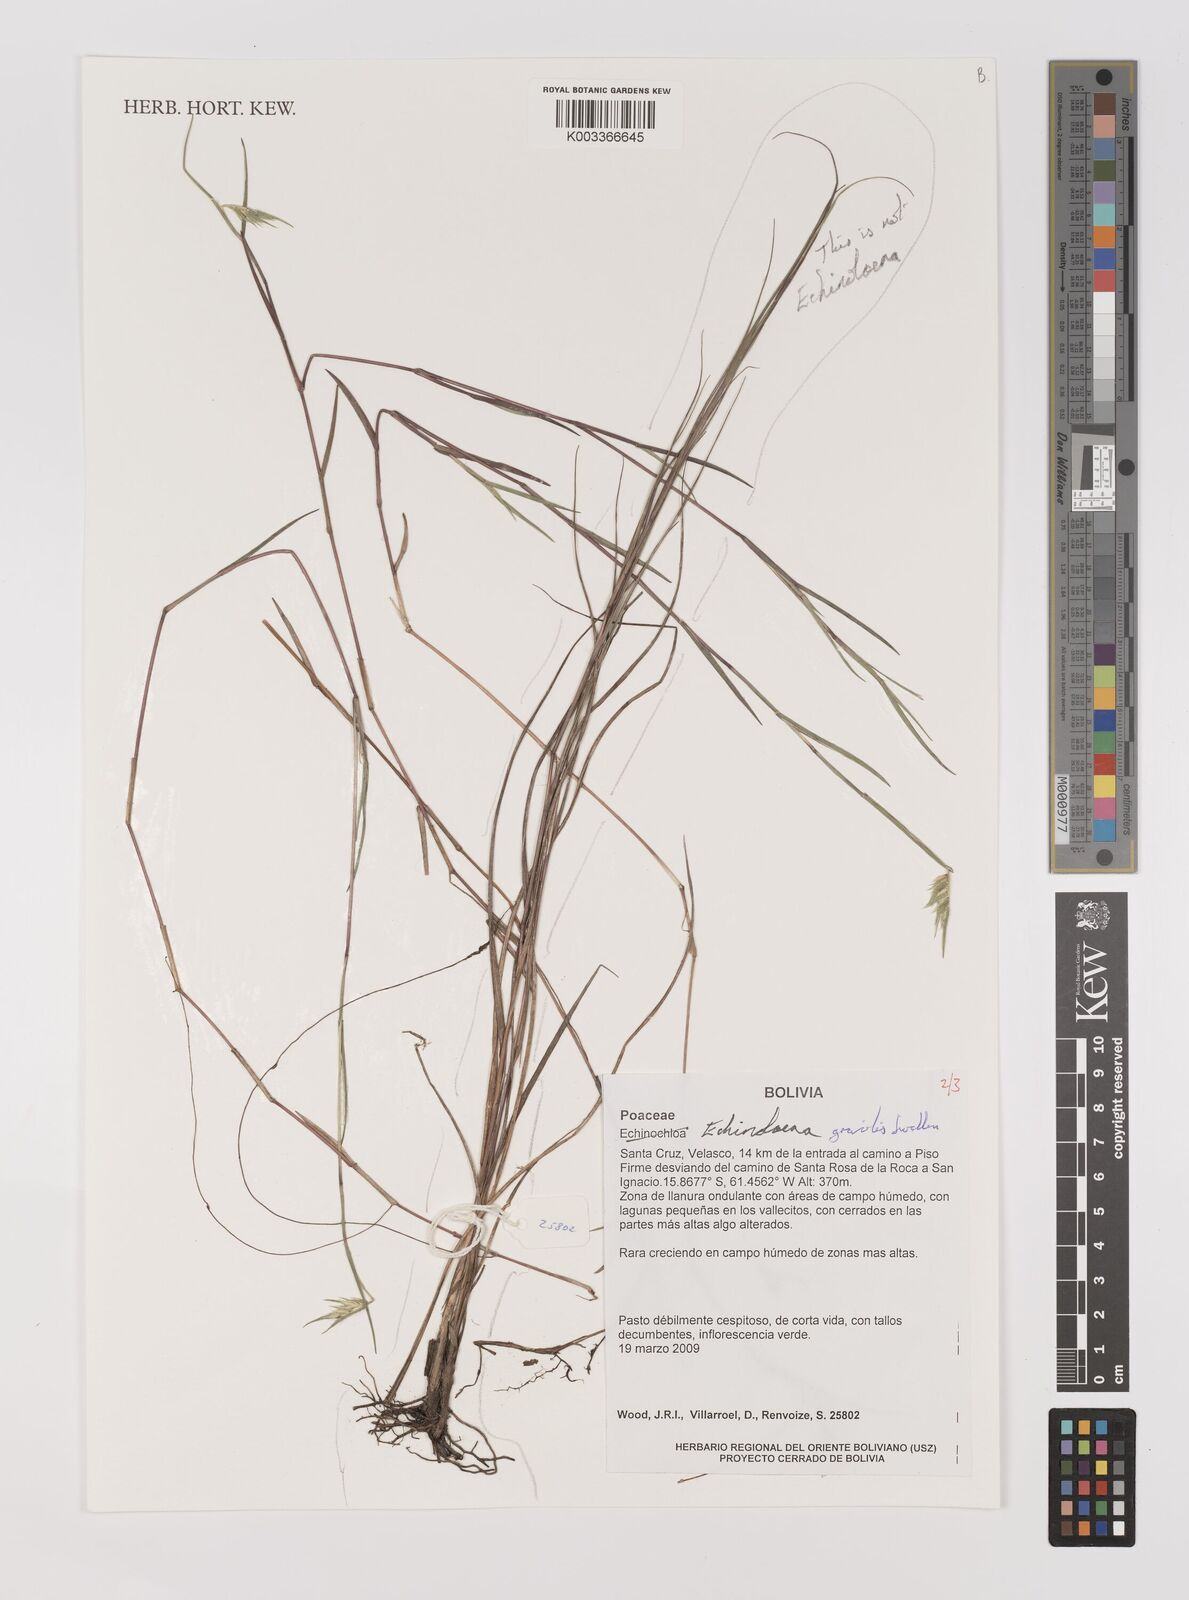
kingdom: Plantae
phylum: Tracheophyta
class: Liliopsida
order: Poales
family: Poaceae
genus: Echinolaena
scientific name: Echinolaena gracilis
